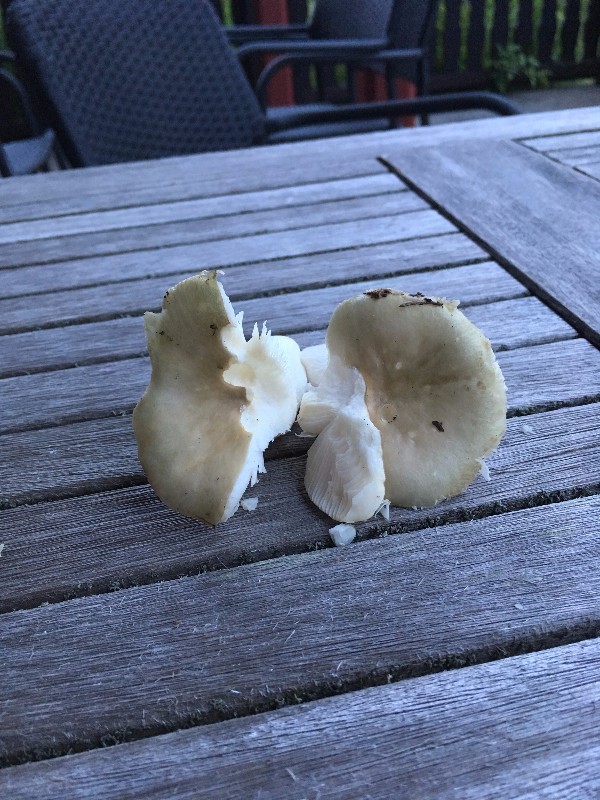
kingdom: Fungi
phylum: Basidiomycota
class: Agaricomycetes
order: Russulales
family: Russulaceae
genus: Russula
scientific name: Russula aeruginea
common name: græsgrøn skørhat
